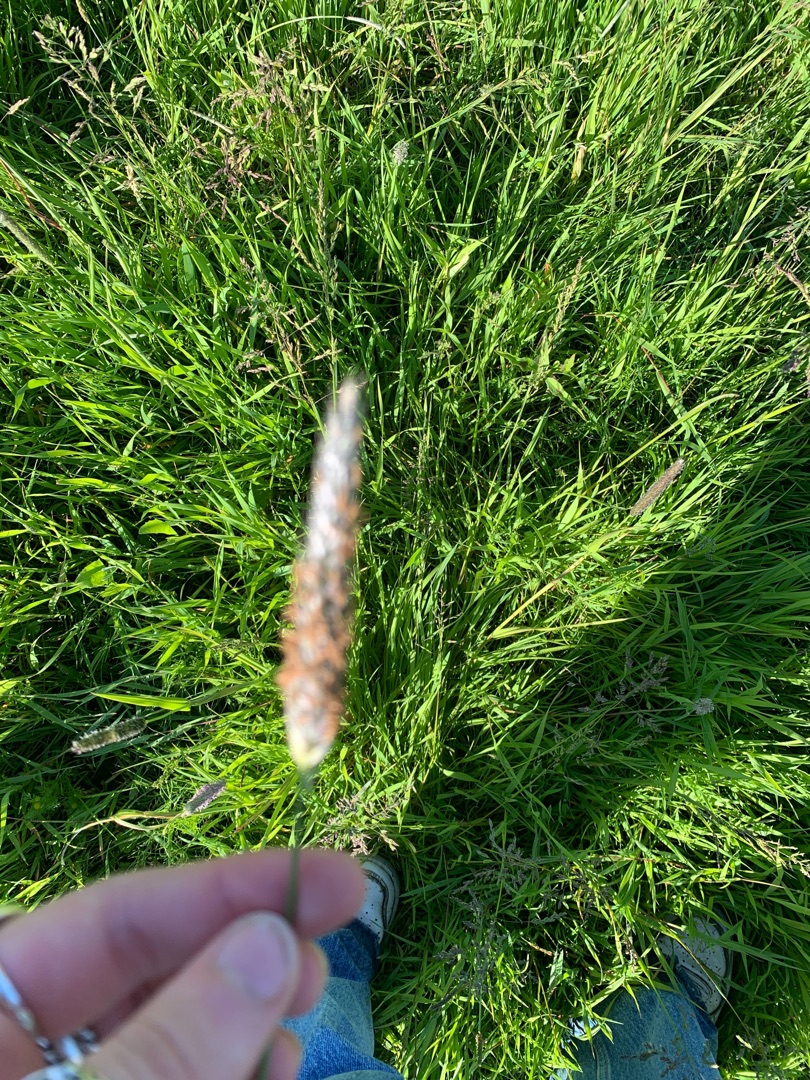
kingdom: Plantae
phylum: Tracheophyta
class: Liliopsida
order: Poales
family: Poaceae
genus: Alopecurus
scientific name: Alopecurus pratensis
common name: Eng-rævehale
